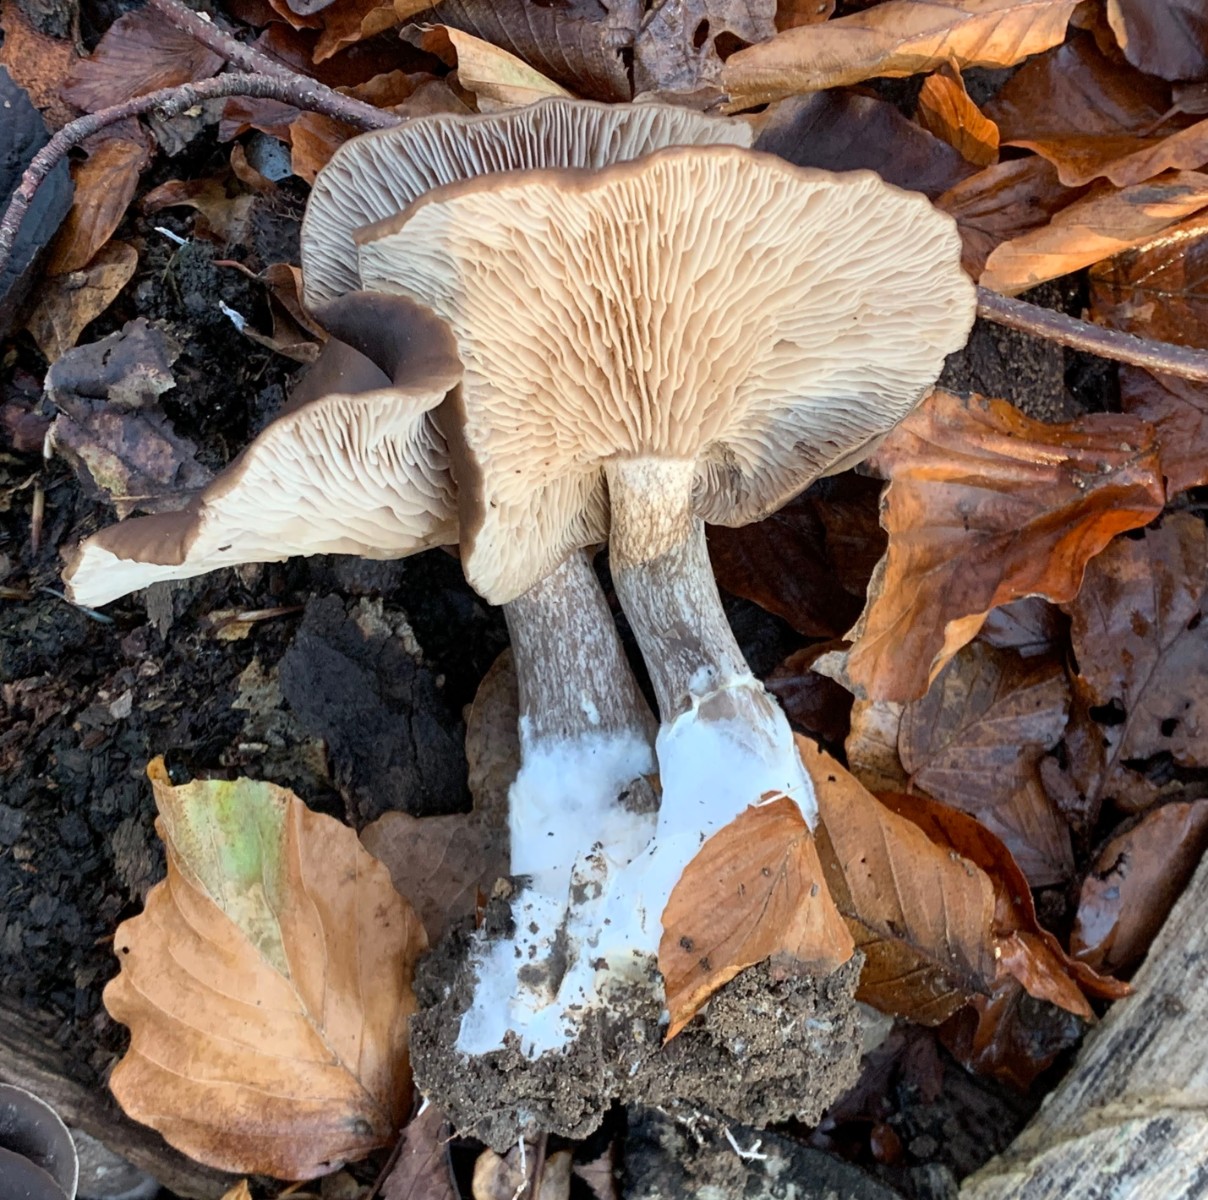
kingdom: Fungi
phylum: Basidiomycota
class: Agaricomycetes
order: Agaricales
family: Pseudoclitocybaceae
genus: Pseudoclitocybe
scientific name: Pseudoclitocybe cyathiformis
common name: almindelig bægertragthat
